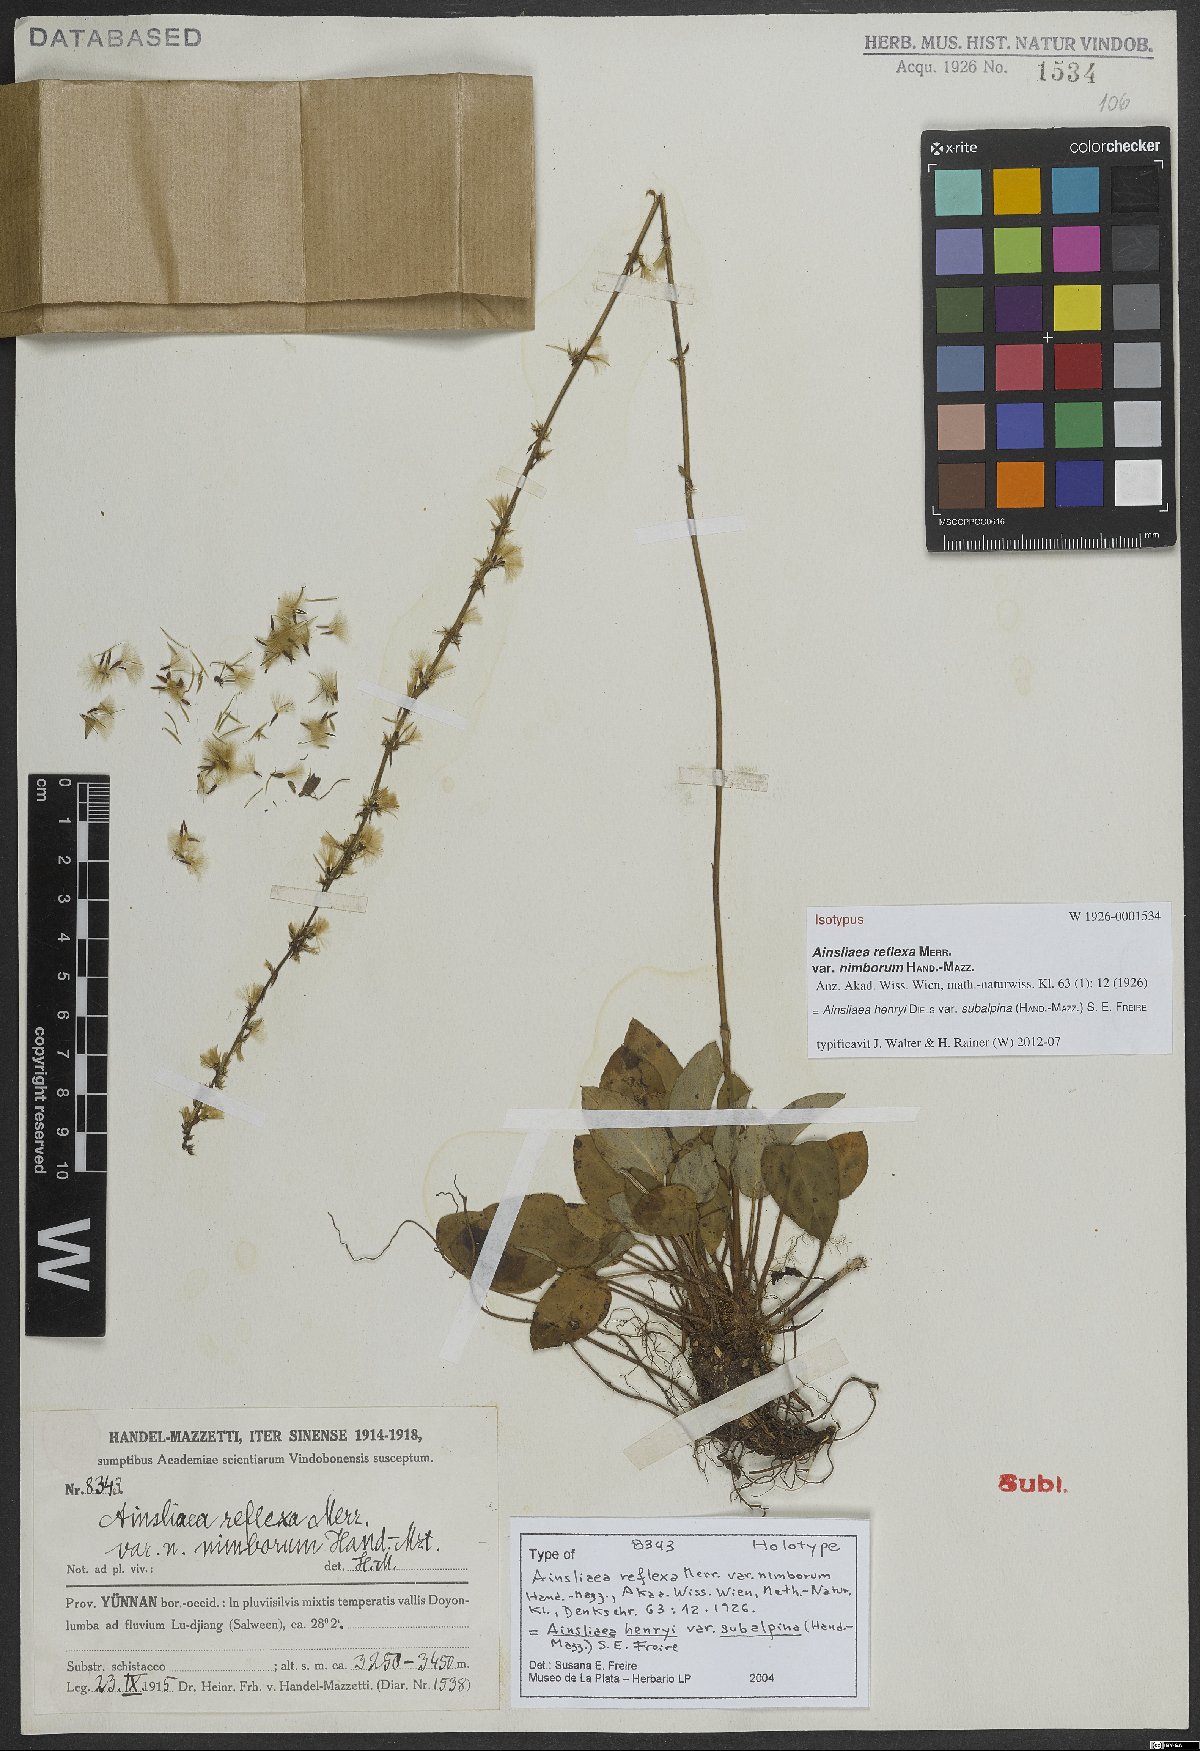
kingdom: Plantae
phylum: Tracheophyta
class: Magnoliopsida
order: Asterales
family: Asteraceae
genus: Ainsliaea
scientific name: Ainsliaea henryi
